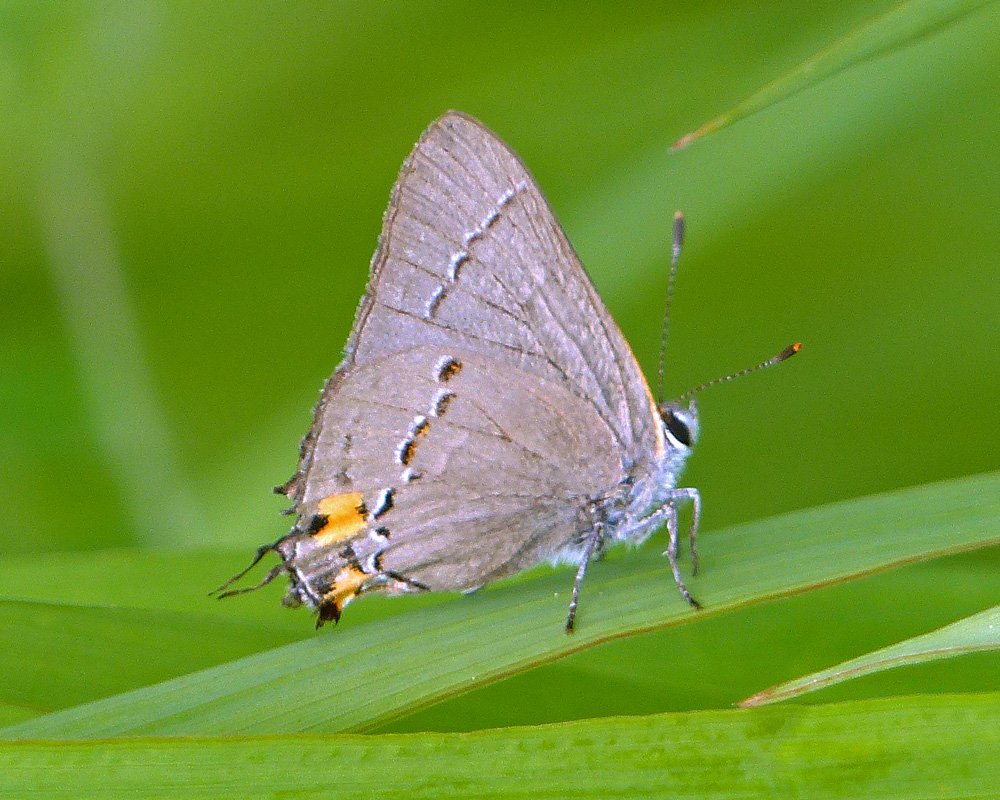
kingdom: Animalia
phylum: Arthropoda
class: Insecta
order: Lepidoptera
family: Lycaenidae
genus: Strymon
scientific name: Strymon melinus
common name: Gray Hairstreak
